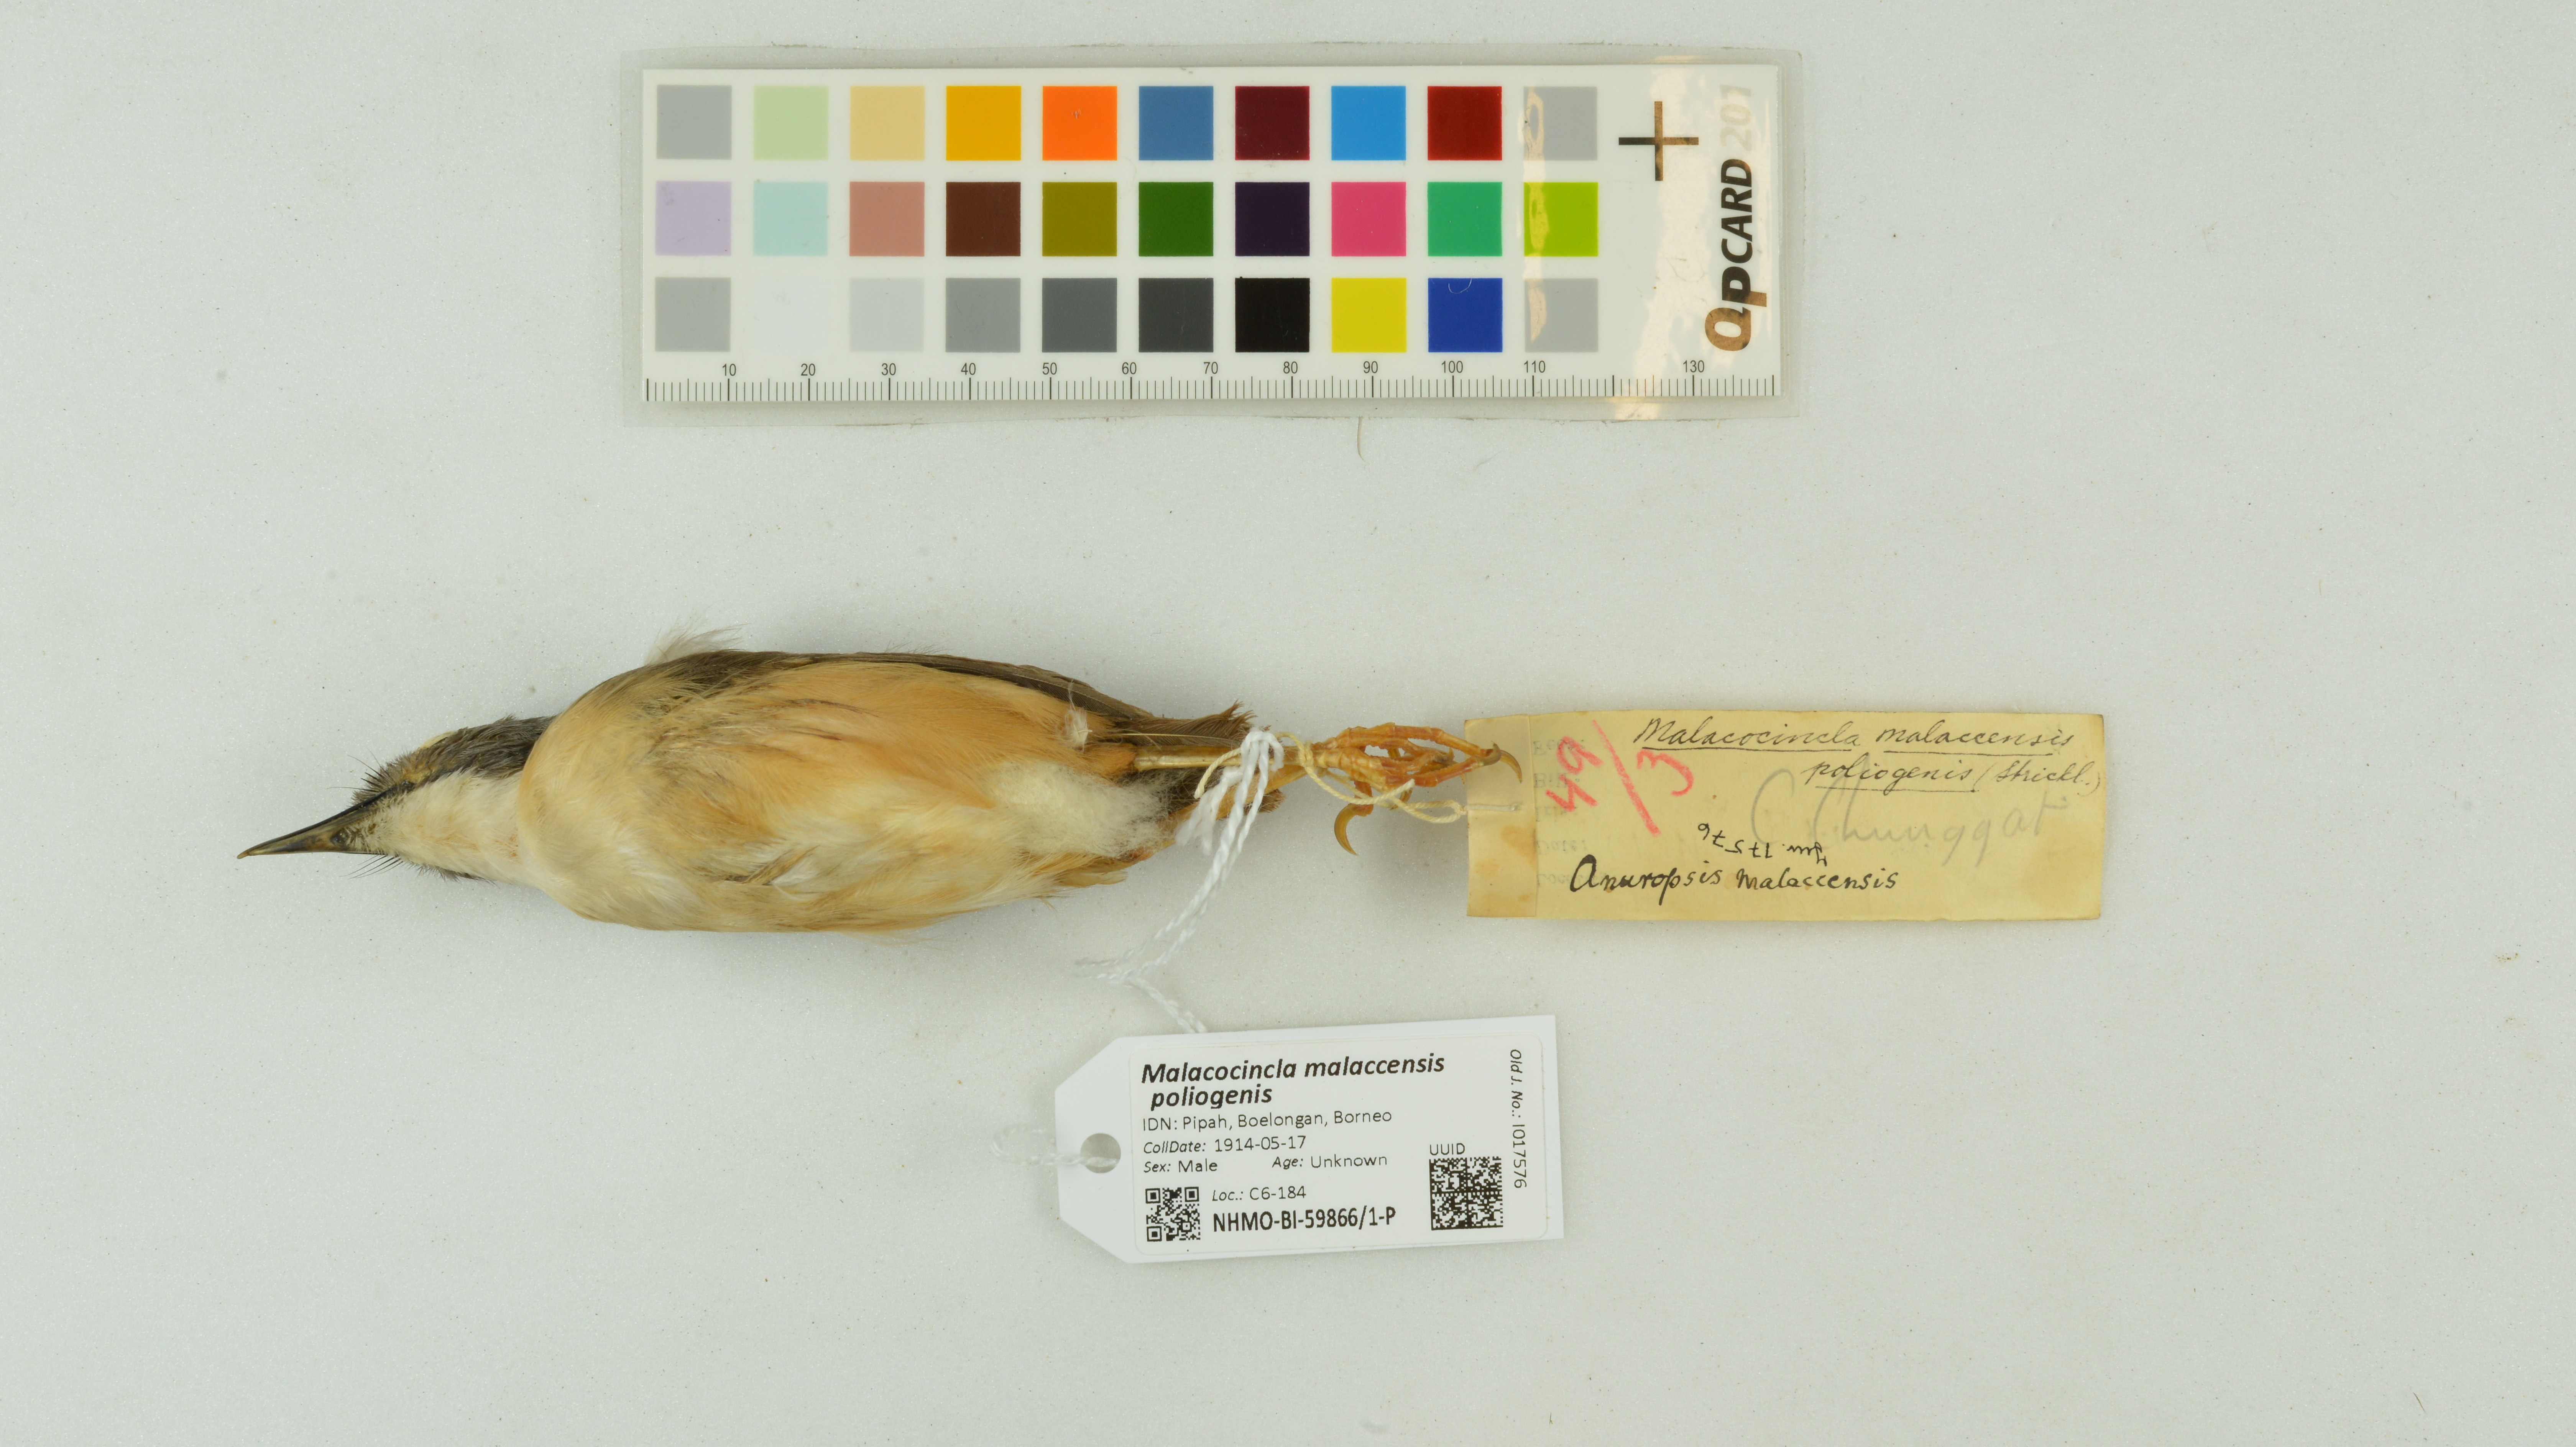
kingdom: Animalia
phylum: Chordata
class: Aves
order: Passeriformes
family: Pellorneidae
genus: Pellorneum
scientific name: Pellorneum malaccense
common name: Short-tailed babbler
